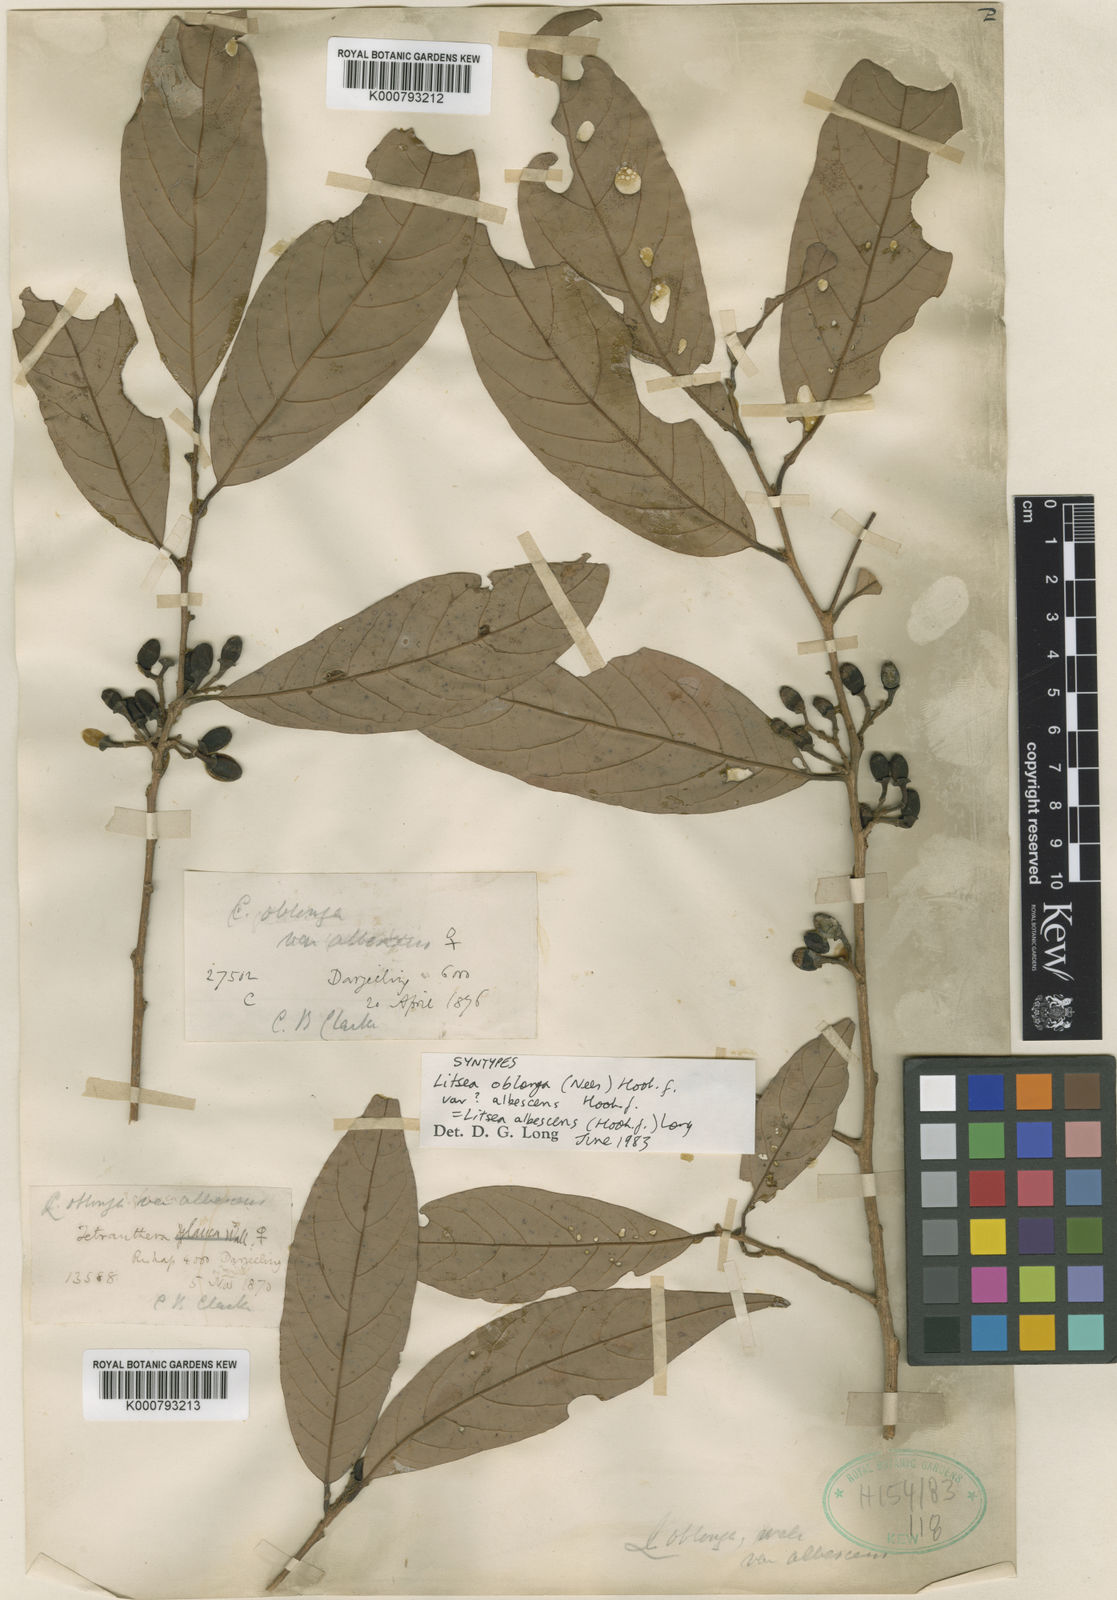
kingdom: Plantae
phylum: Tracheophyta
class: Magnoliopsida
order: Laurales
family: Lauraceae
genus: Litsea
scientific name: Litsea doshia
